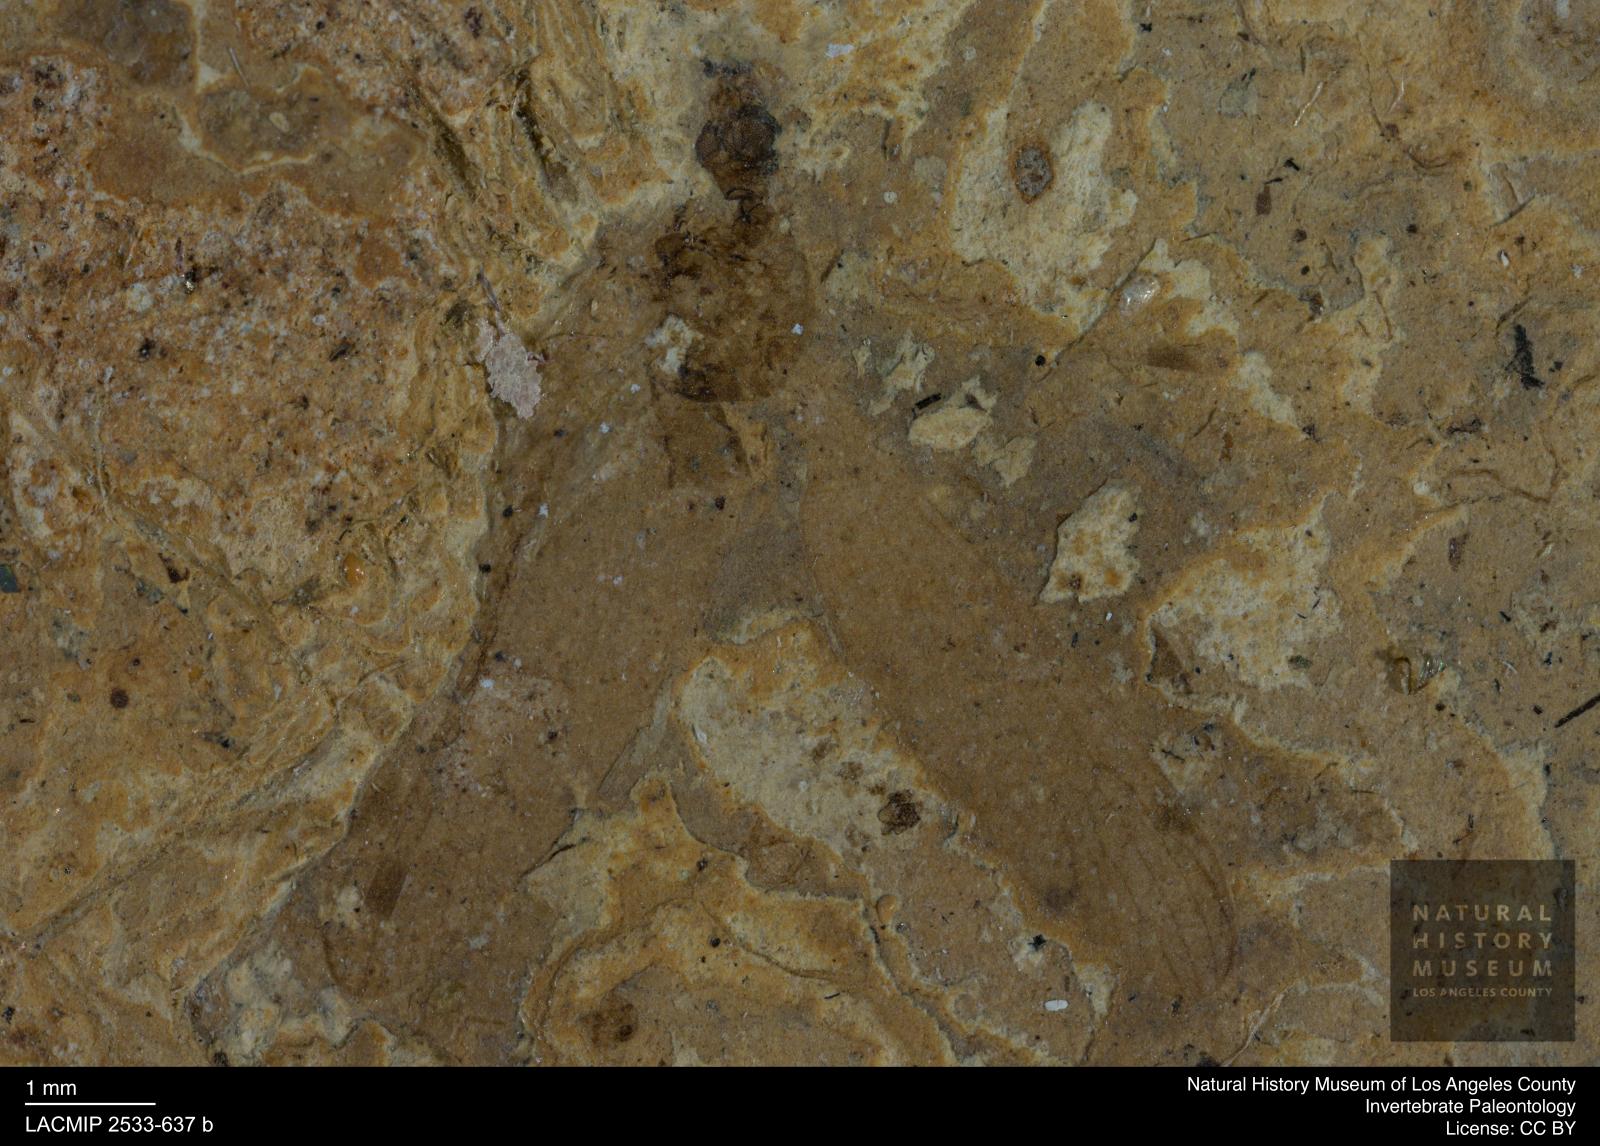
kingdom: Animalia
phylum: Arthropoda
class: Insecta
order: Diptera
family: Limoniidae
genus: Dactylolabis
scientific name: Dactylolabis tenuis
